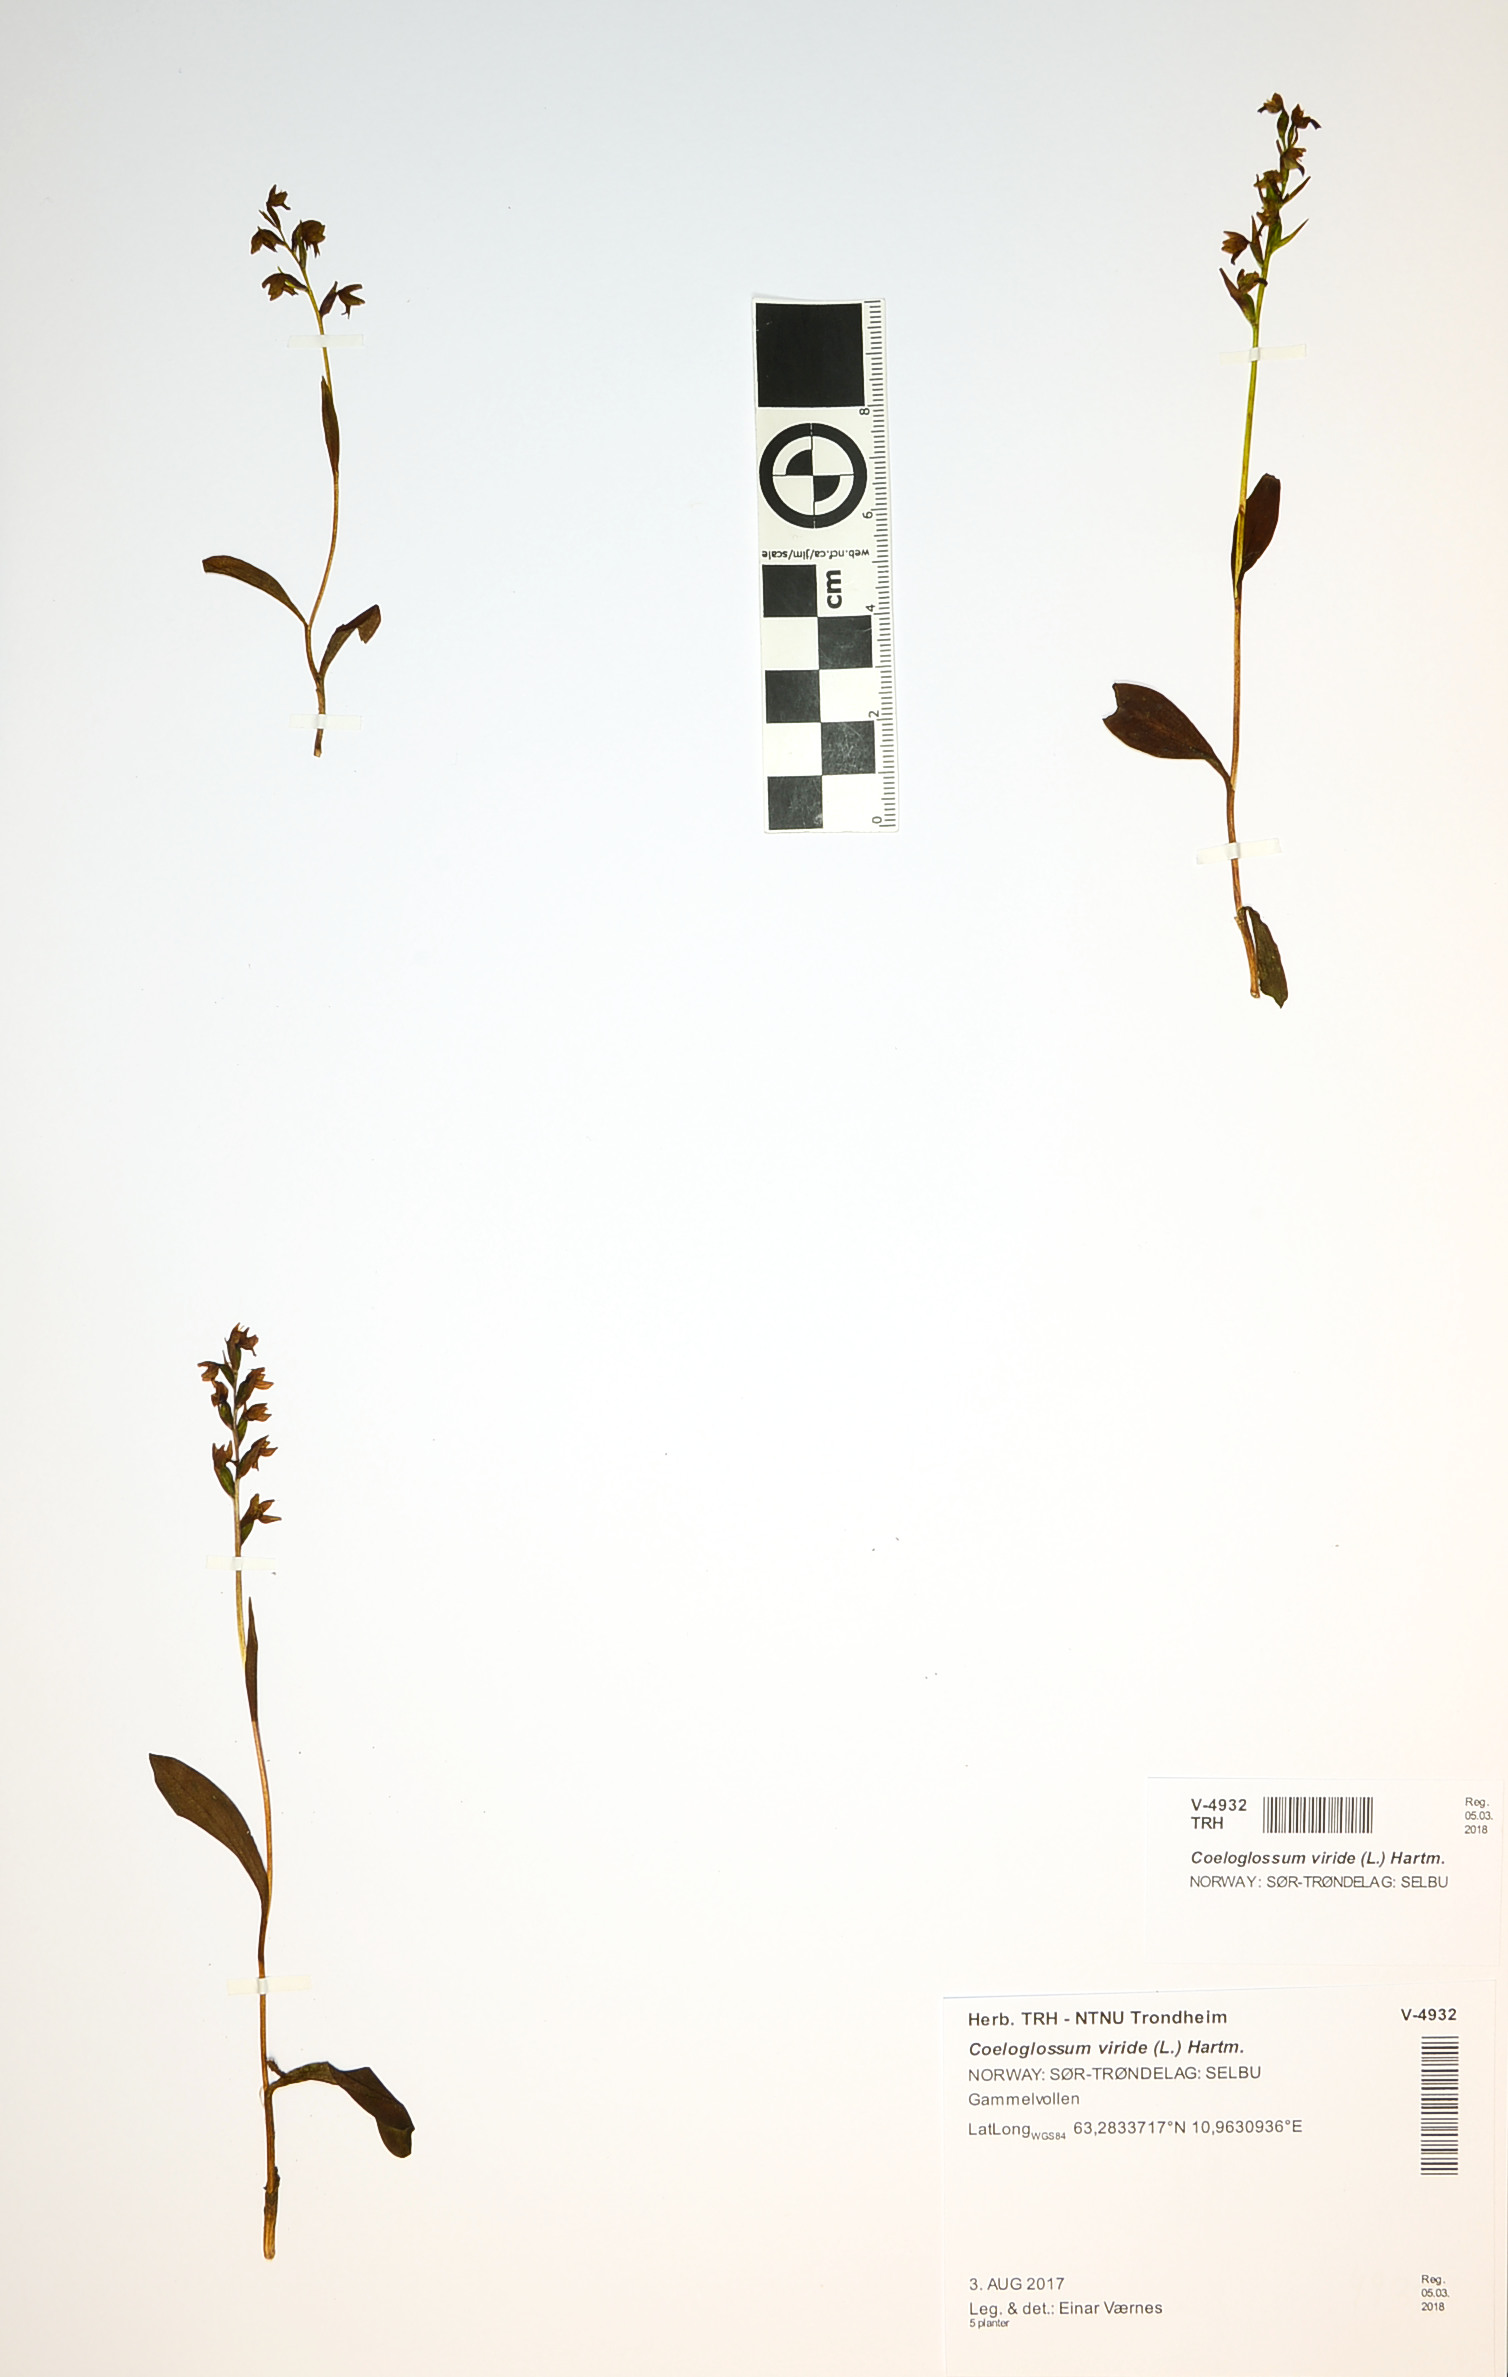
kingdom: Plantae
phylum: Tracheophyta
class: Liliopsida
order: Asparagales
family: Orchidaceae
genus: Dactylorhiza
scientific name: Dactylorhiza viridis
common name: Longbract frog orchid
